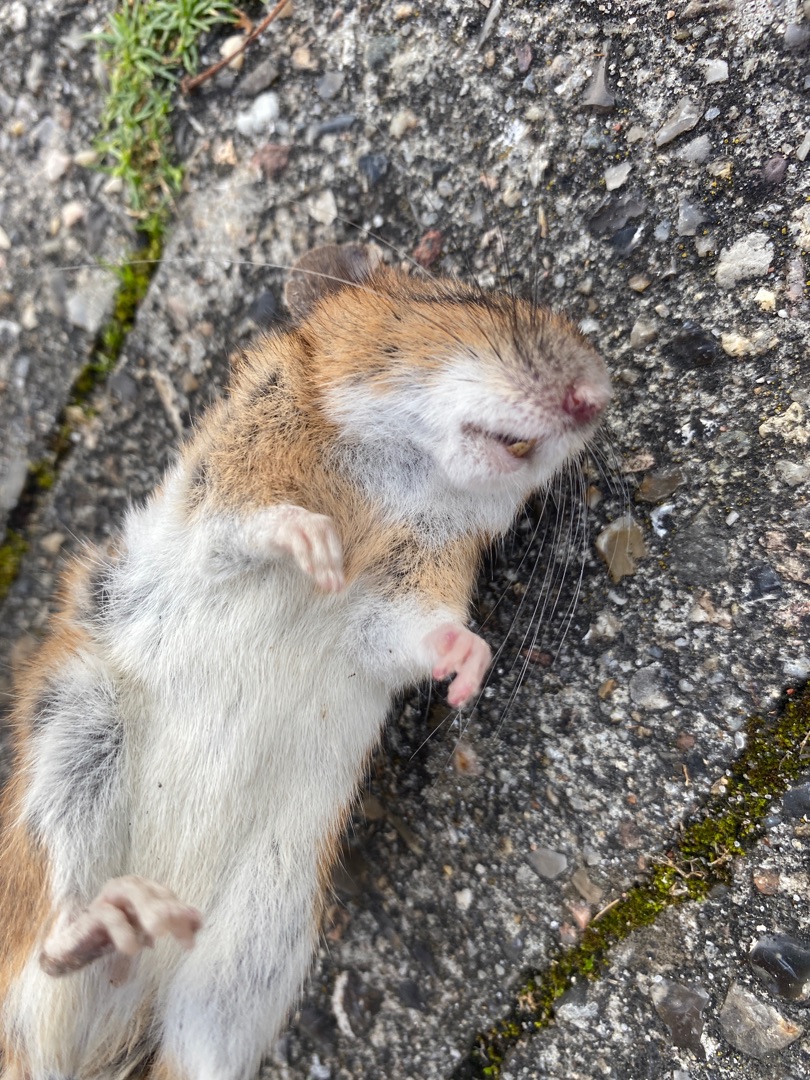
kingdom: Animalia
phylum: Chordata
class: Mammalia
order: Rodentia
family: Muridae
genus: Apodemus
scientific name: Apodemus flavicollis
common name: Halsbåndmus
